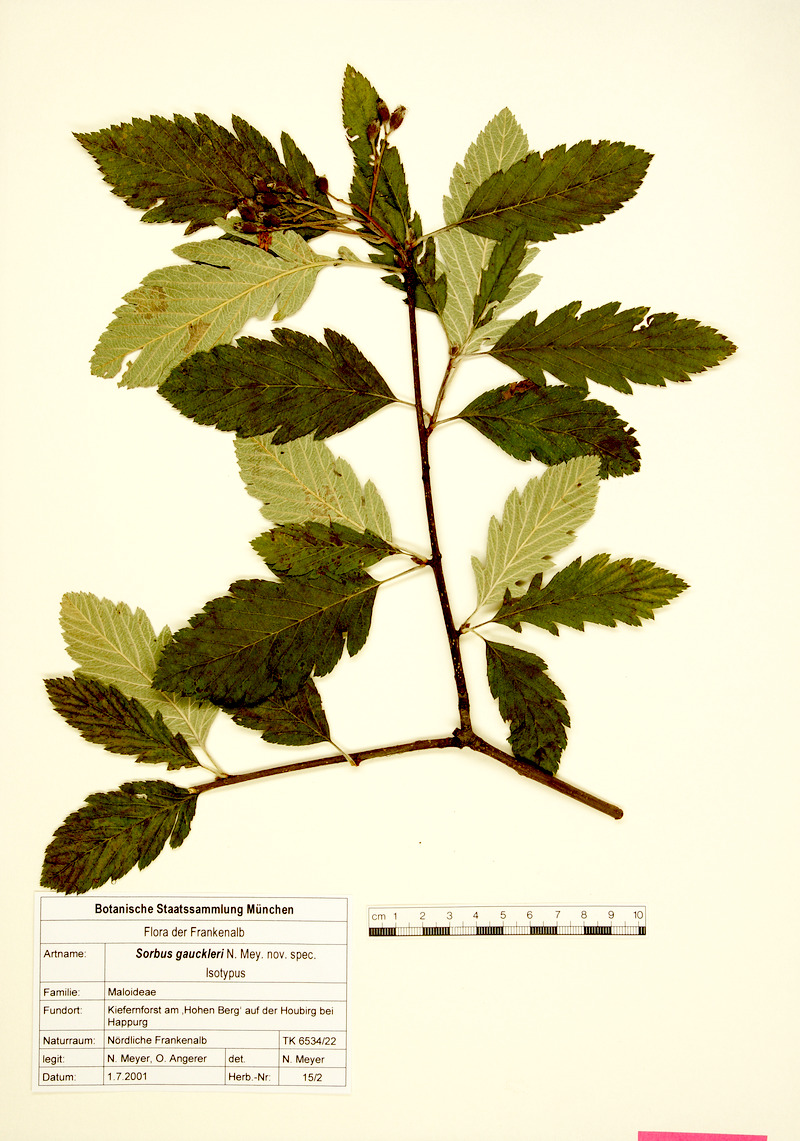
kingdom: Plantae
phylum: Tracheophyta
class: Magnoliopsida
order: Rosales
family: Rosaceae
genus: Hedlundia
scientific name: Hedlundia gauckleri
